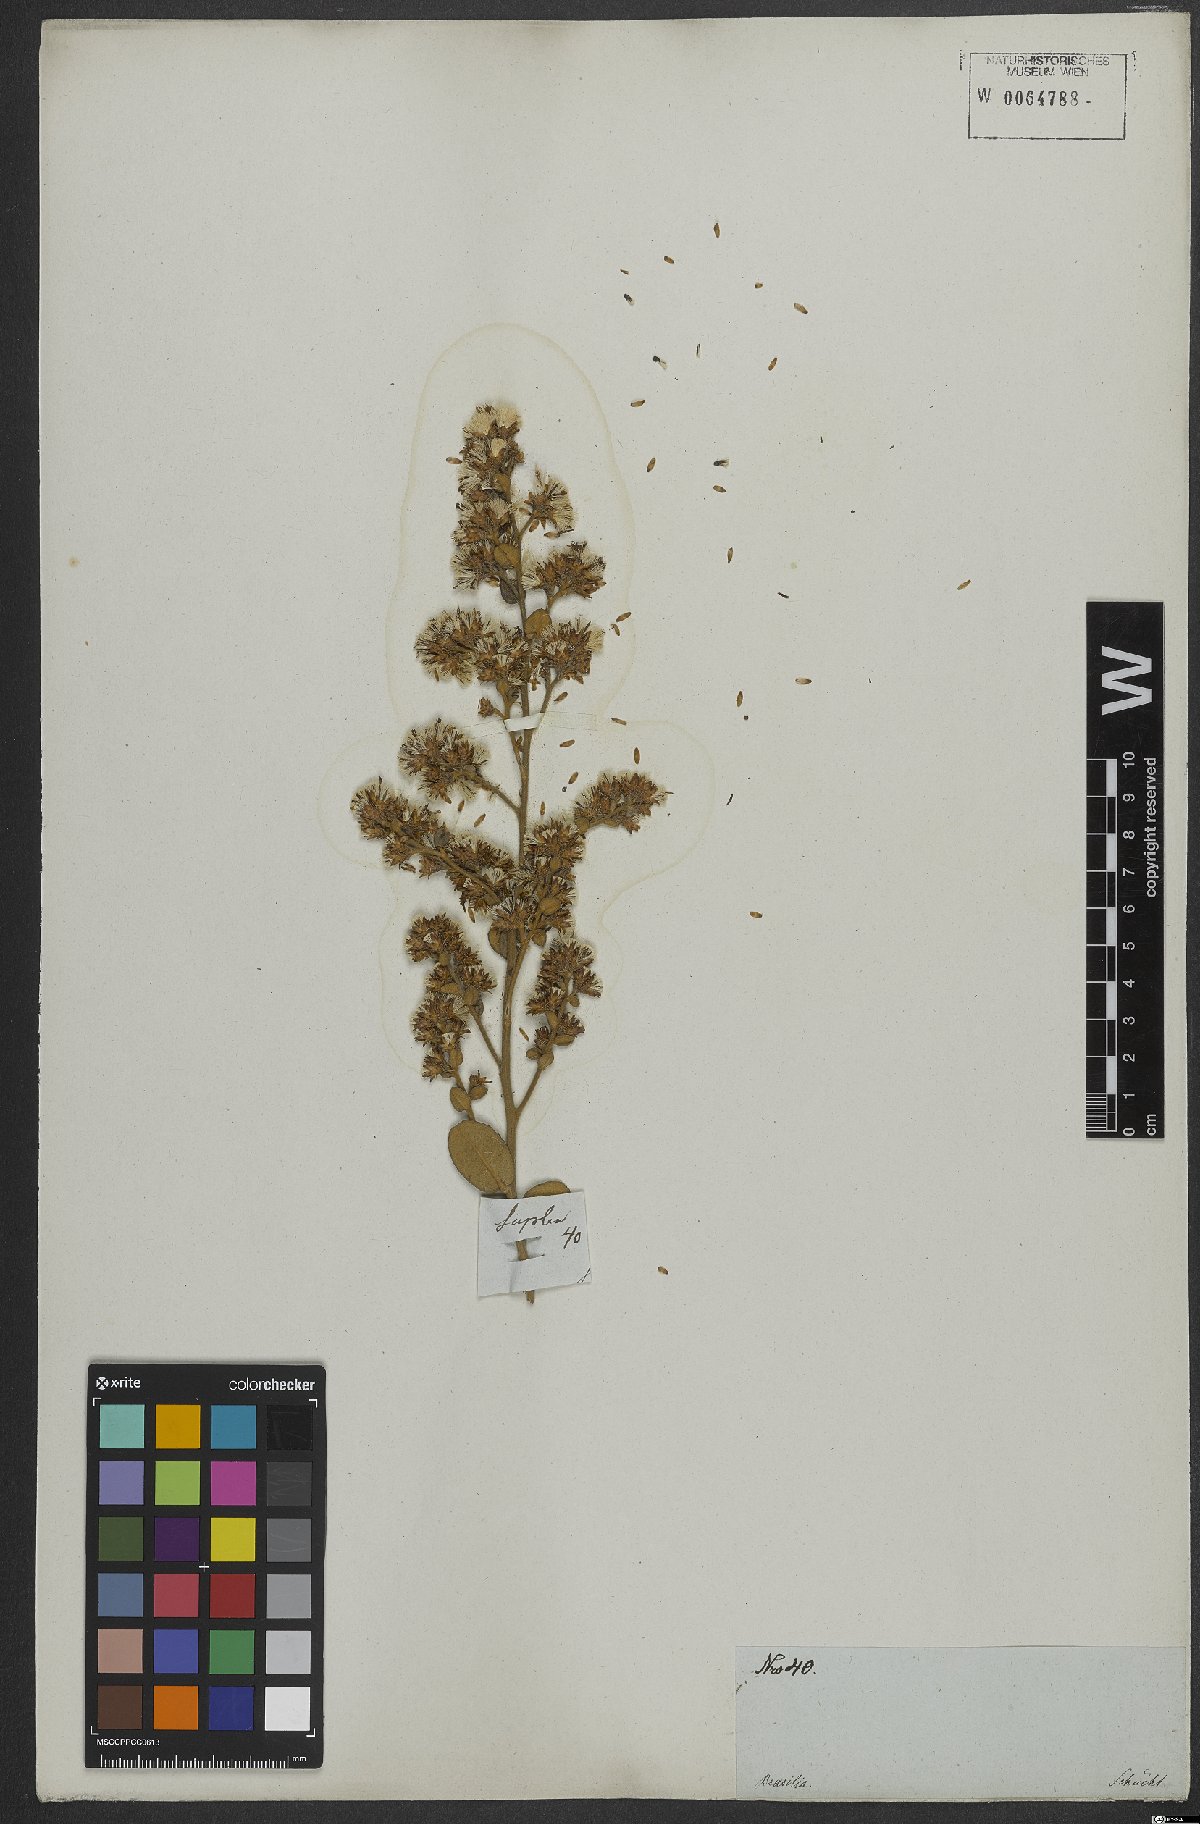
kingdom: Plantae
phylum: Tracheophyta
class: Magnoliopsida
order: Asterales
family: Asteraceae
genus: Vernonanthura
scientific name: Vernonanthura mucronulata
